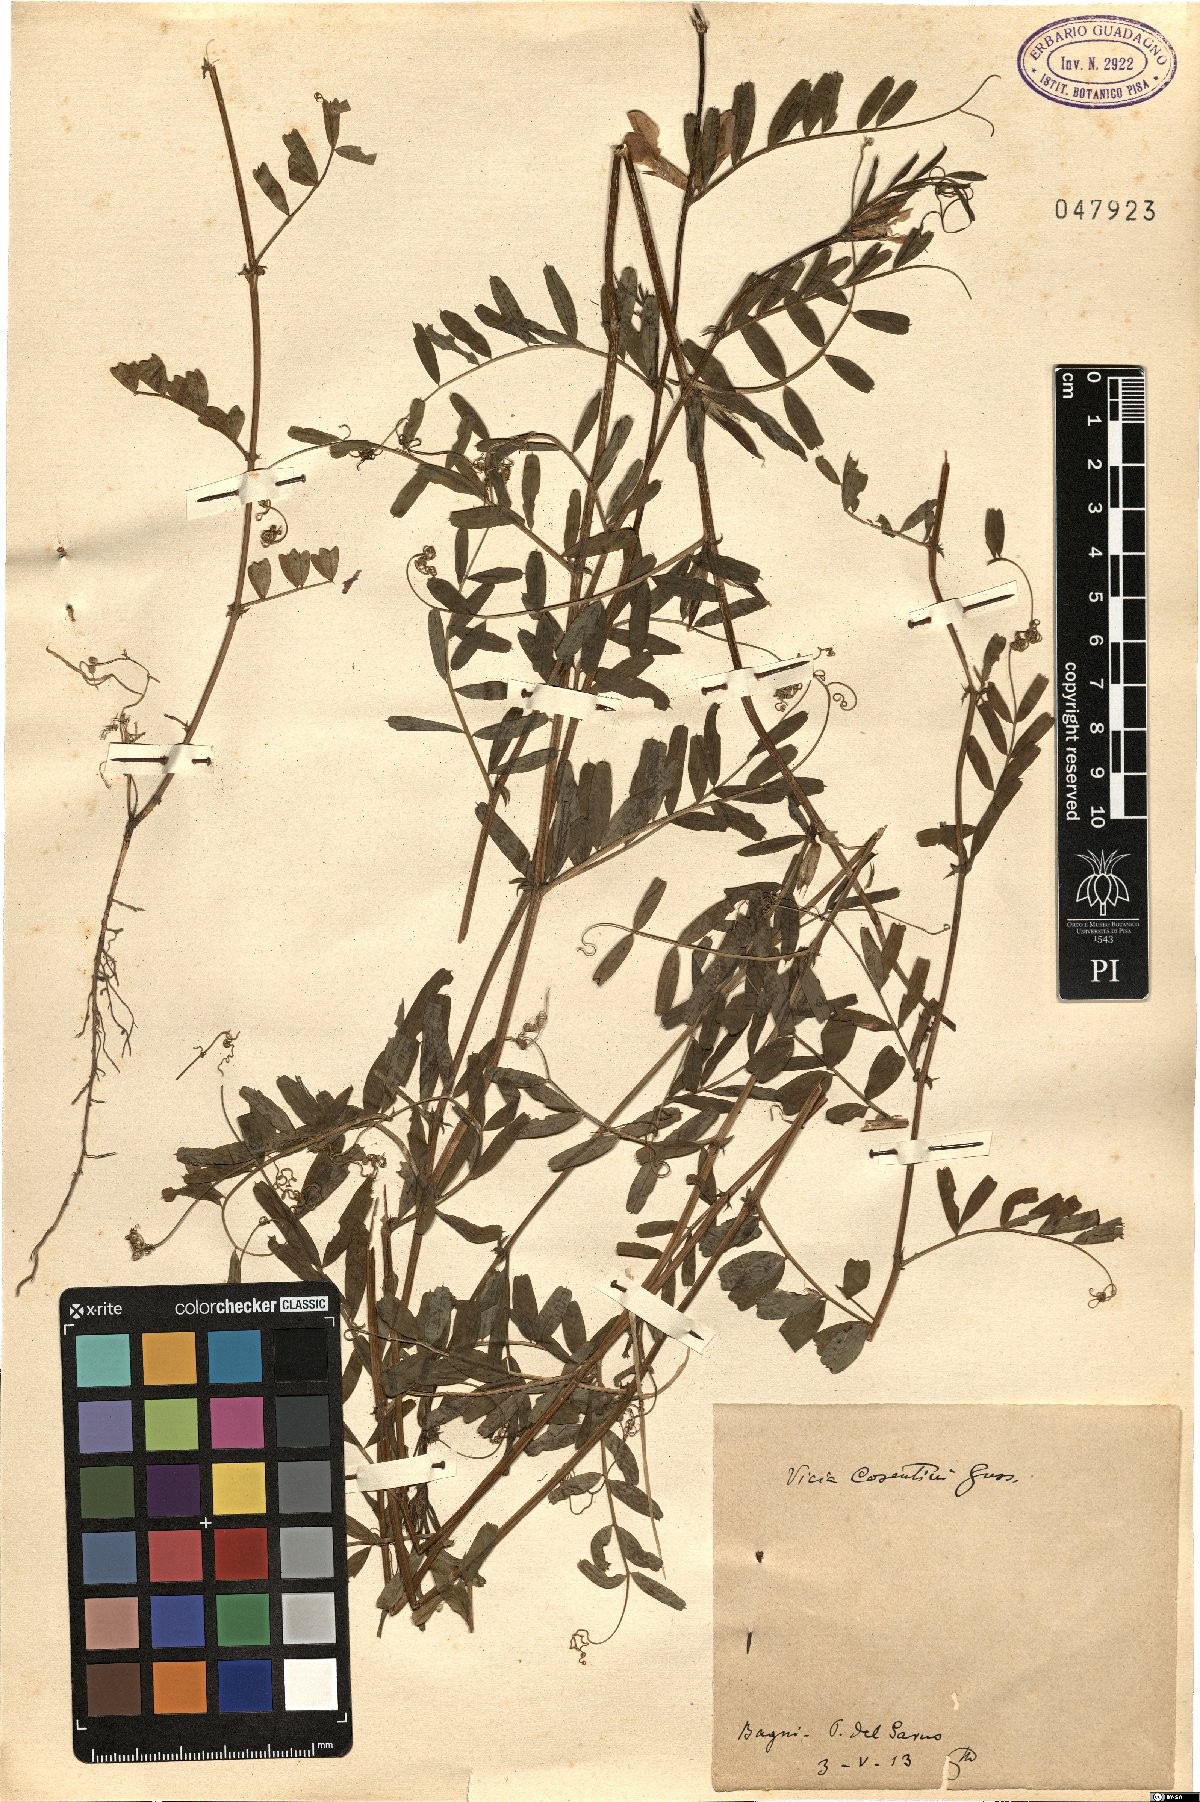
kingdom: Plantae
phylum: Tracheophyta
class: Magnoliopsida
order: Fabales
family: Fabaceae
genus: Vicia
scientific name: Vicia sativa
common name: Garden vetch
